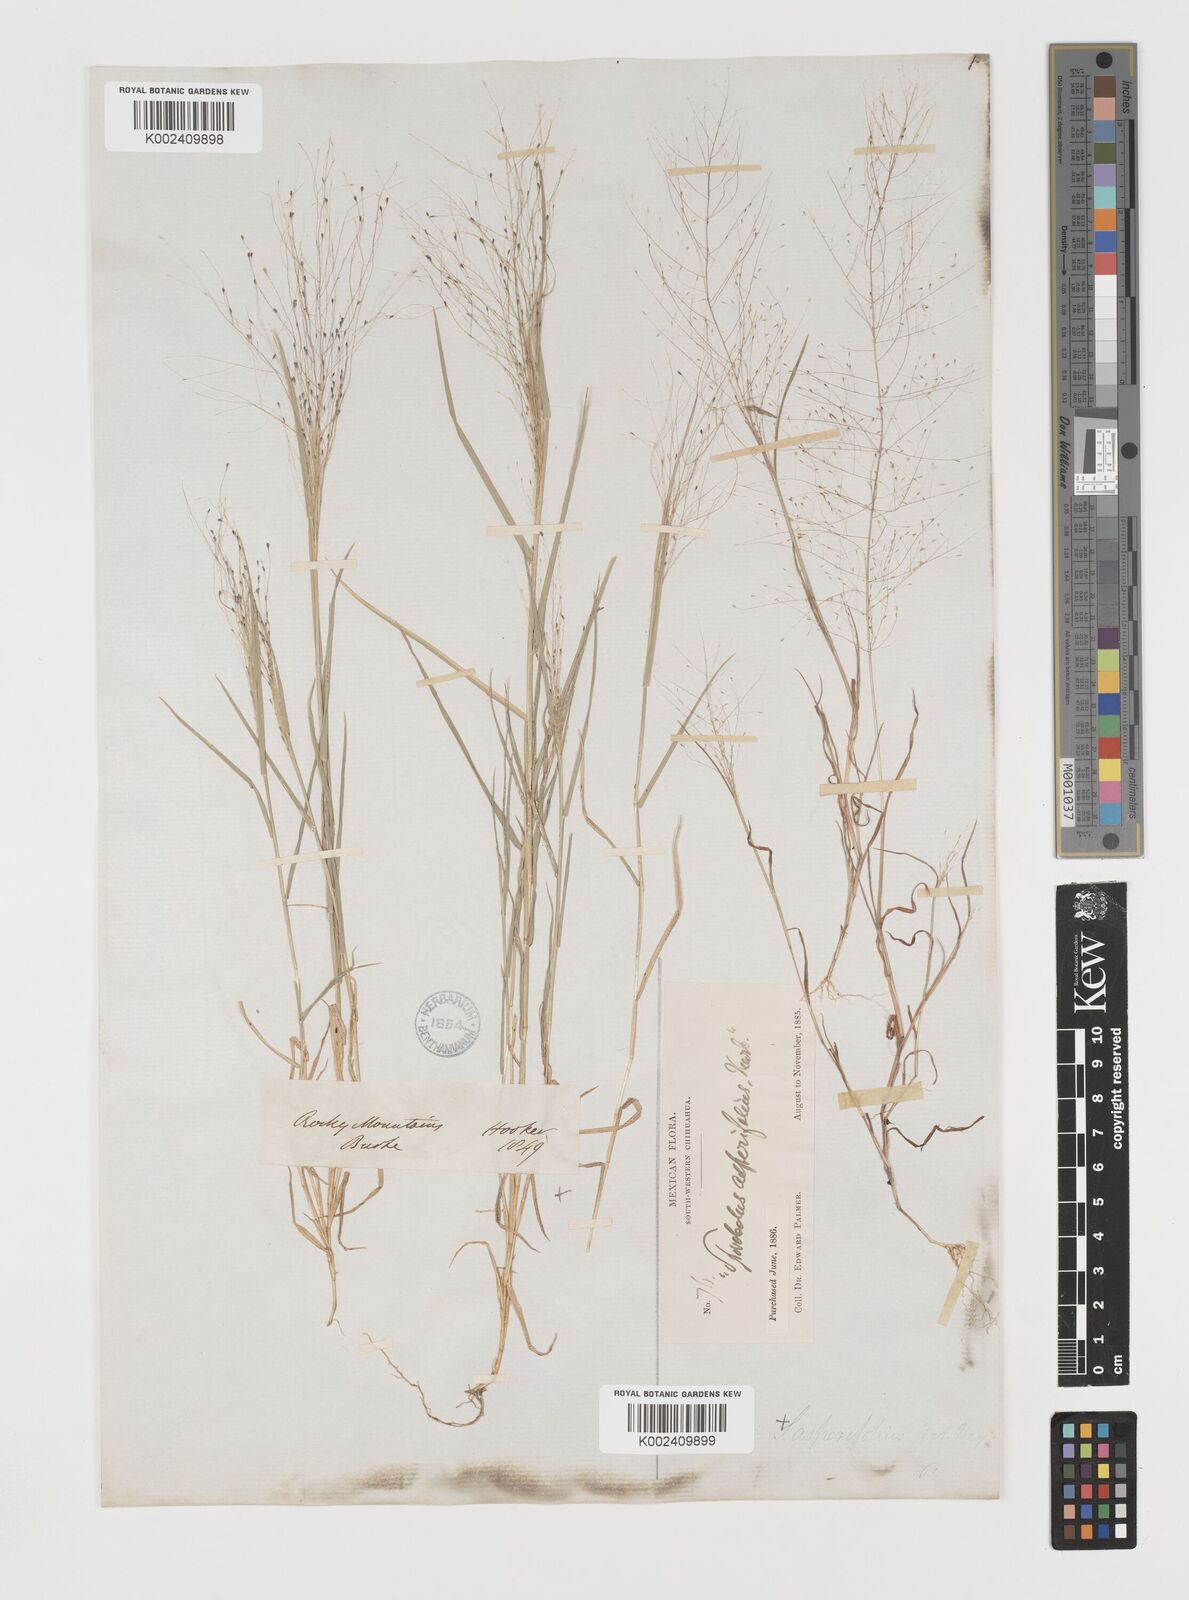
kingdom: Plantae
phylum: Tracheophyta
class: Liliopsida
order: Poales
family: Poaceae
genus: Muhlenbergia
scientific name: Muhlenbergia asperifolia
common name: Alkali muhly
